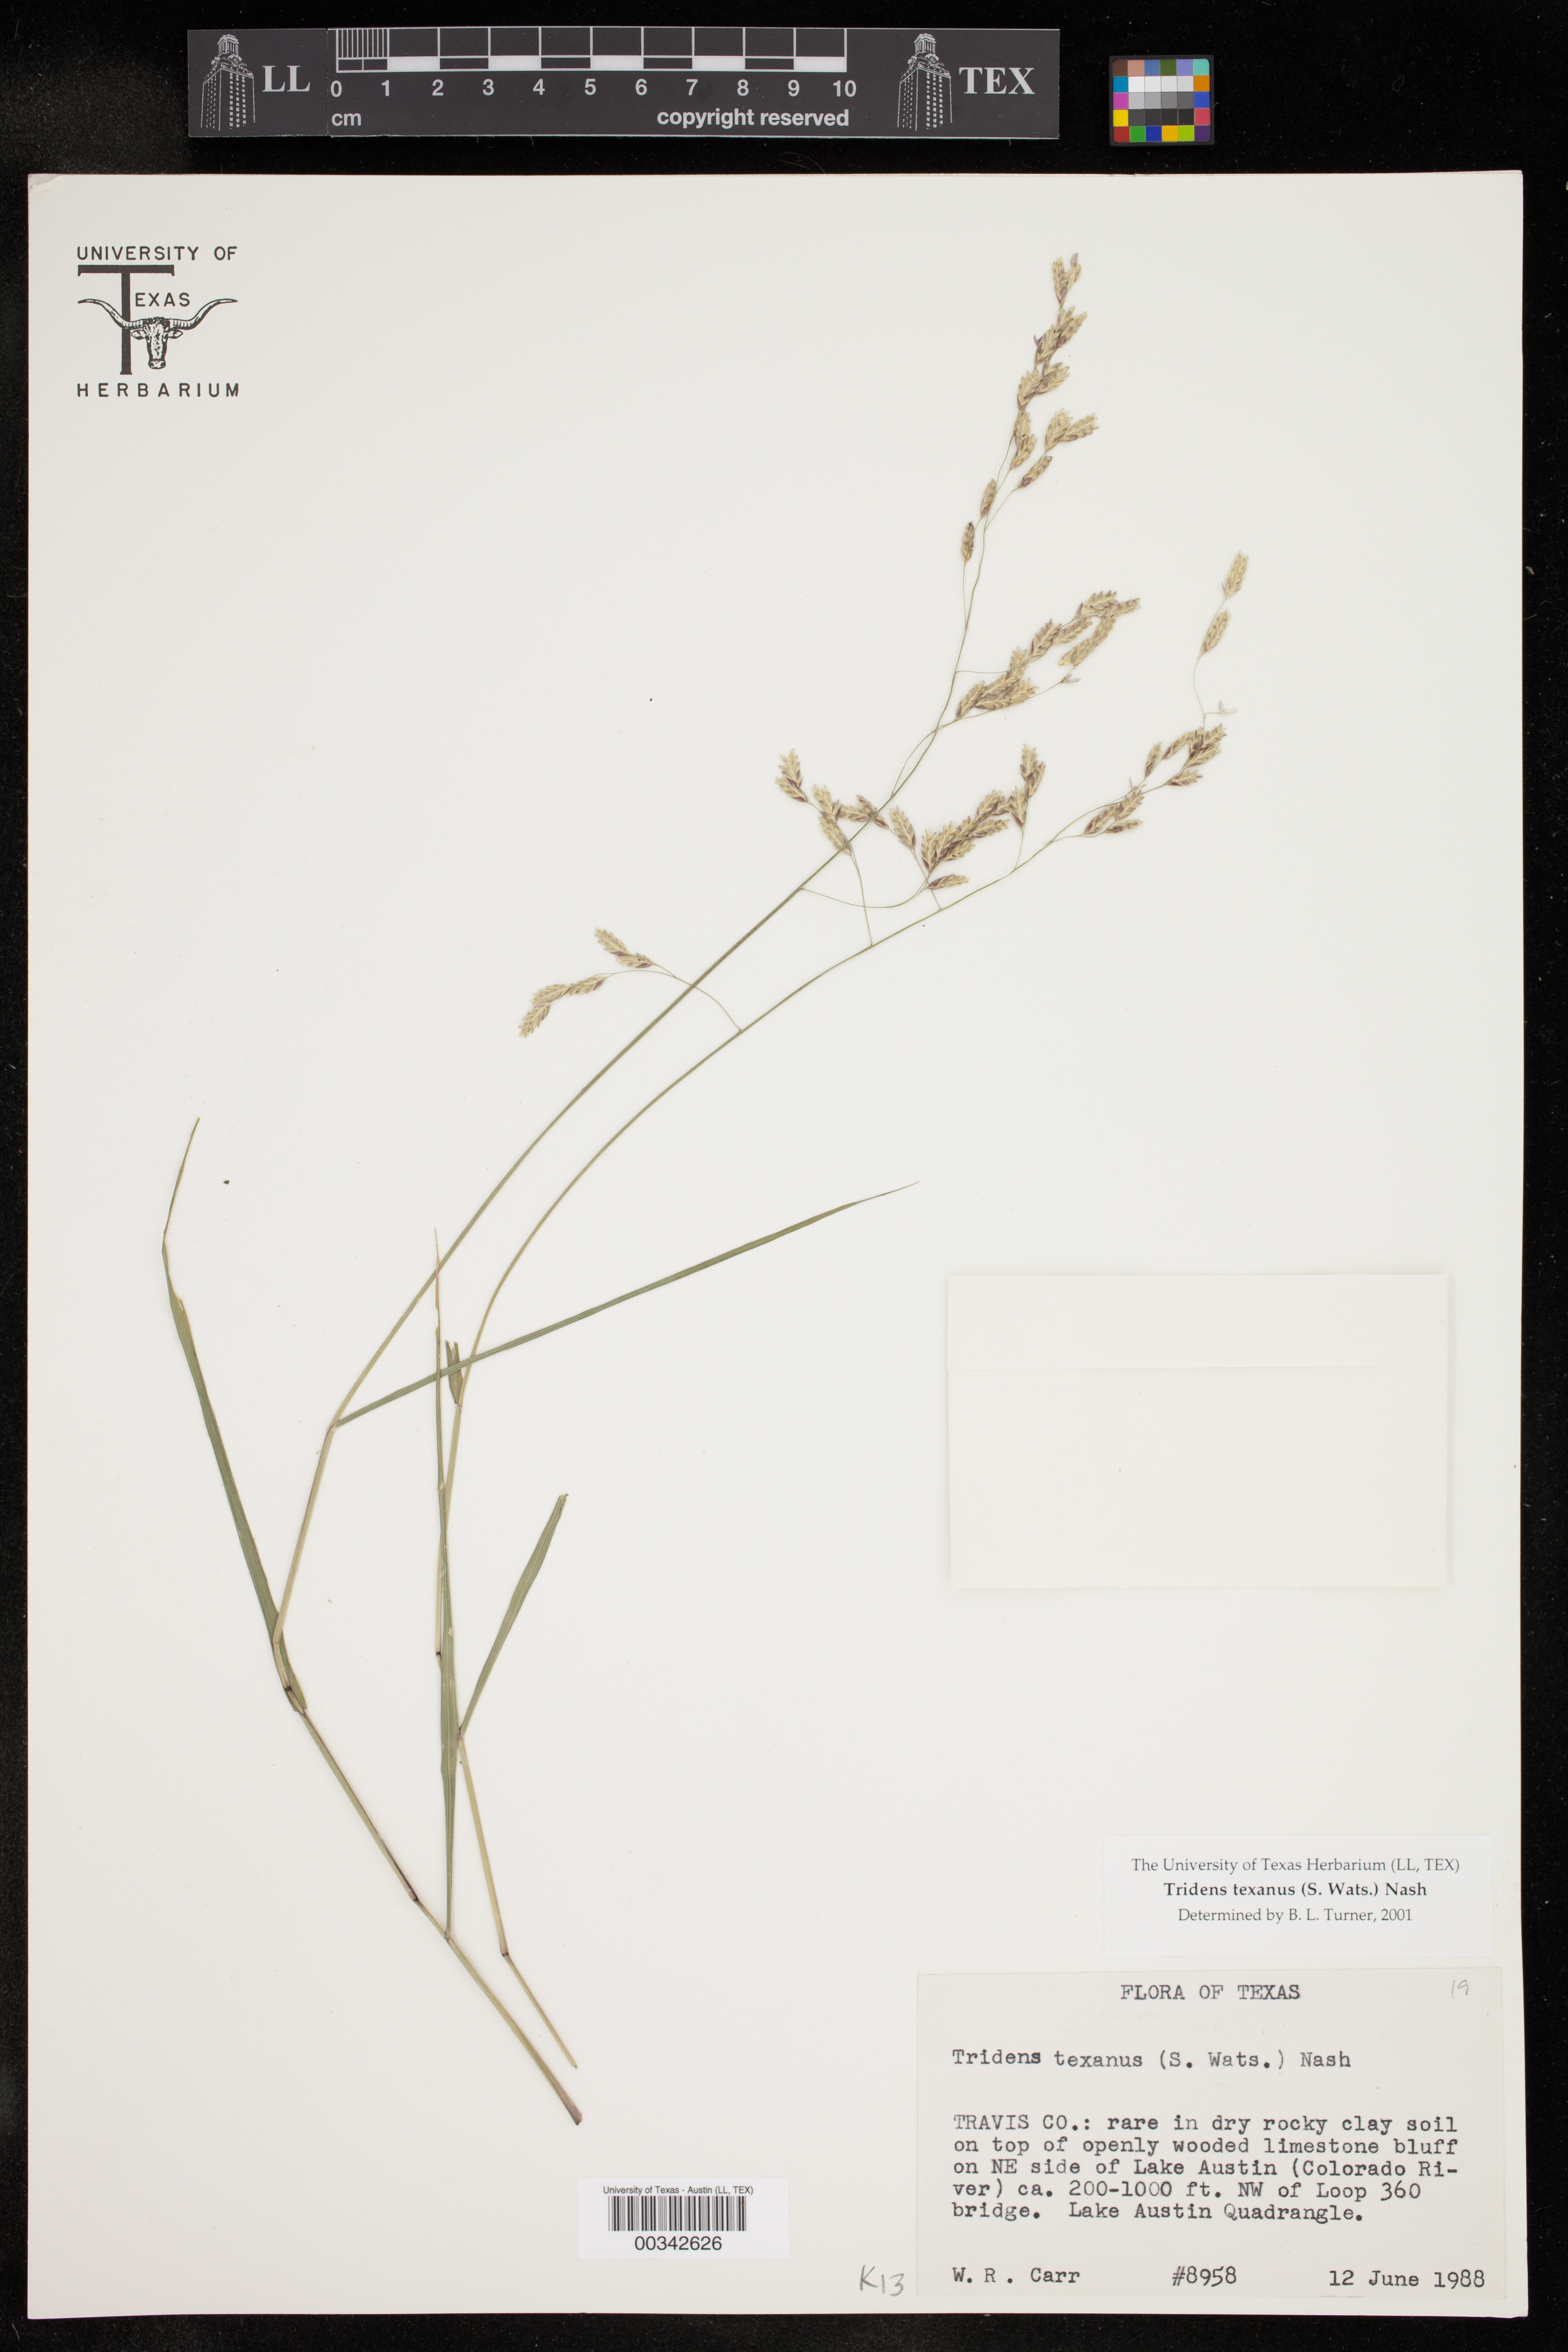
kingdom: Plantae
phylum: Tracheophyta
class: Liliopsida
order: Poales
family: Poaceae
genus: Tridens
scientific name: Tridens texanus
